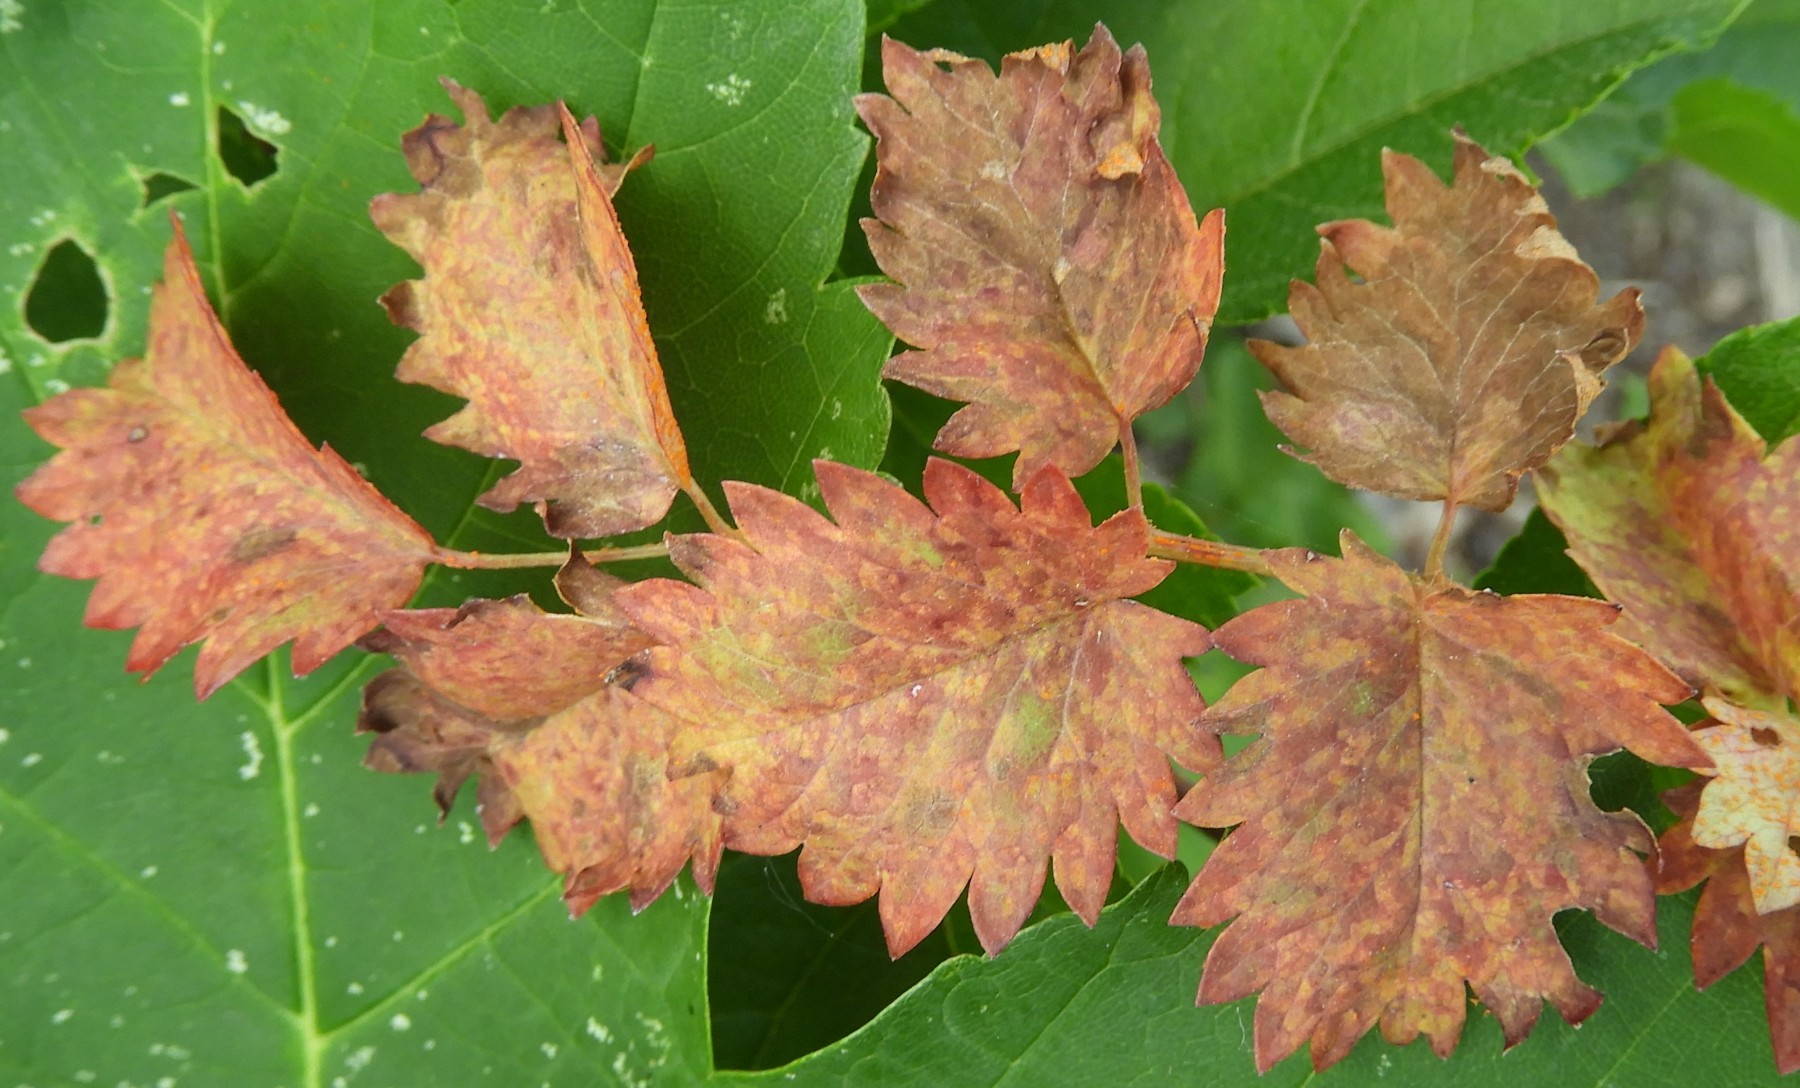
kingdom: Fungi
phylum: Basidiomycota
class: Pucciniomycetes
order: Pucciniales
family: Phragmidiaceae
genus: Phragmidium
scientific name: Phragmidium sanguisorbae
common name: Salad burnet rust
